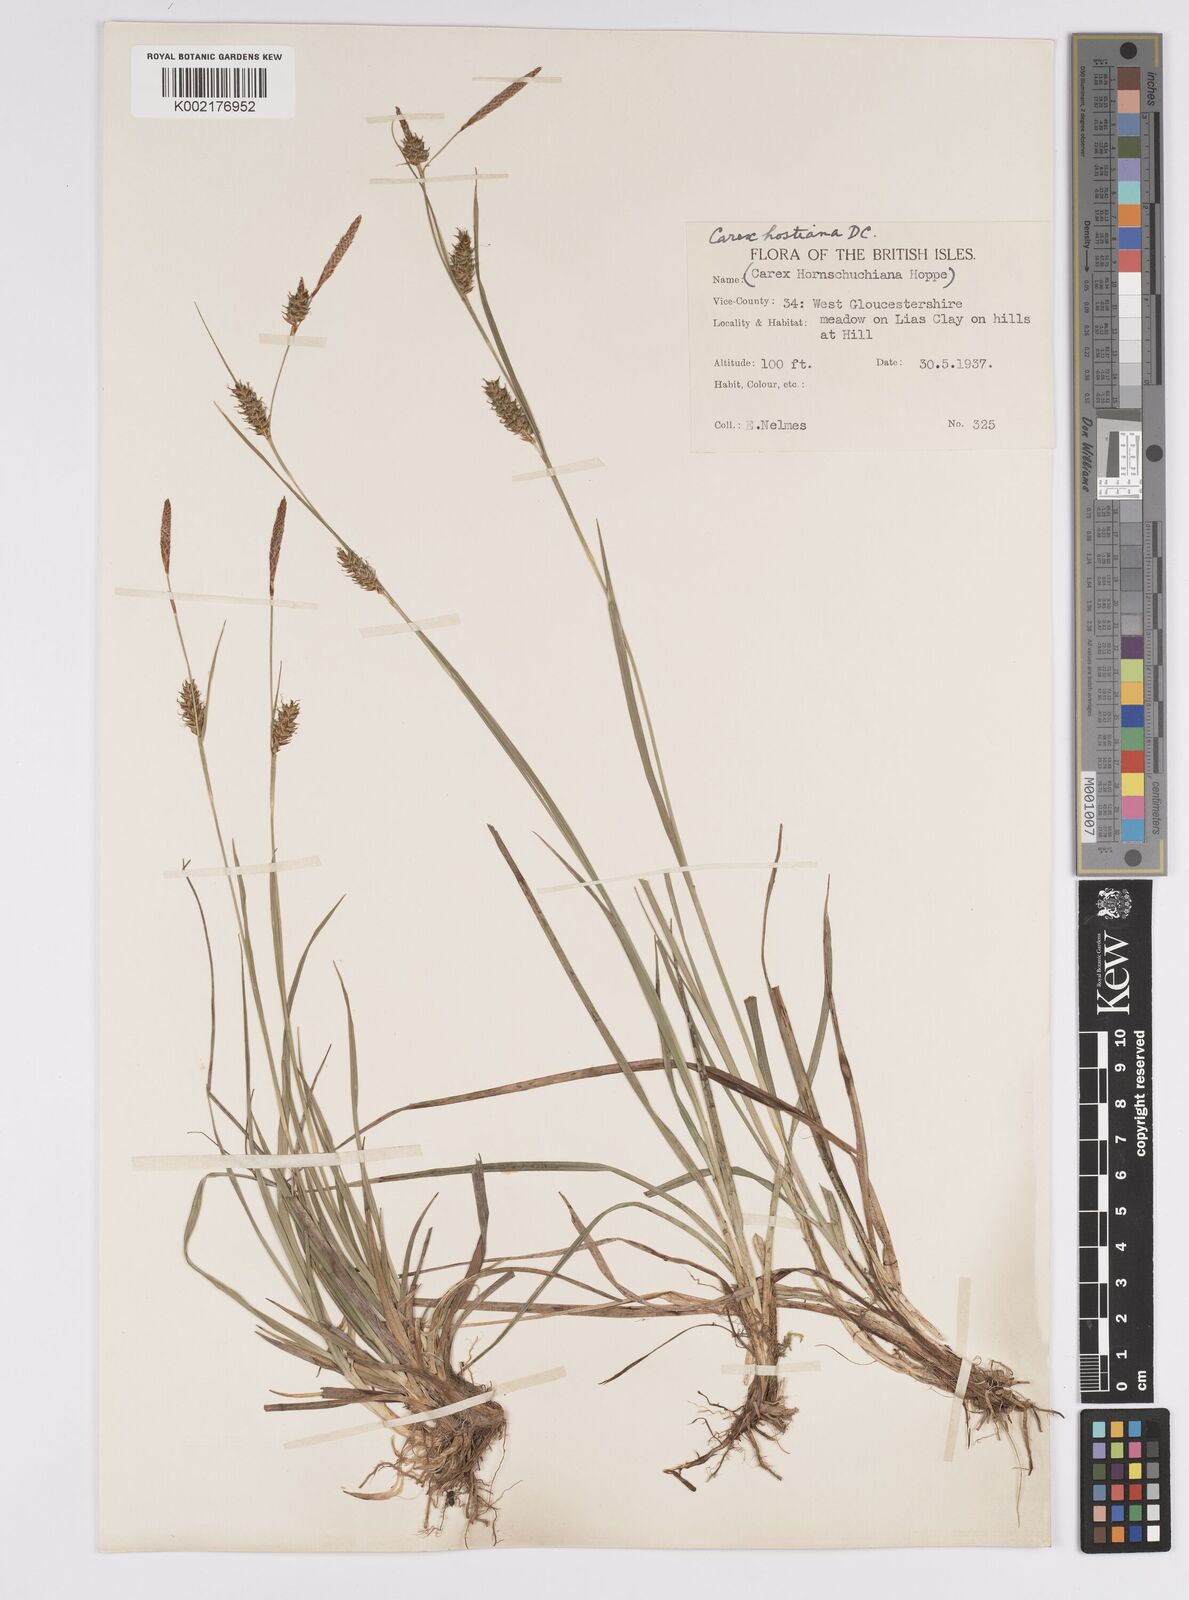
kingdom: Plantae
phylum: Tracheophyta
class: Liliopsida
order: Poales
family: Cyperaceae
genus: Carex
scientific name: Carex hostiana
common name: Tawny sedge
